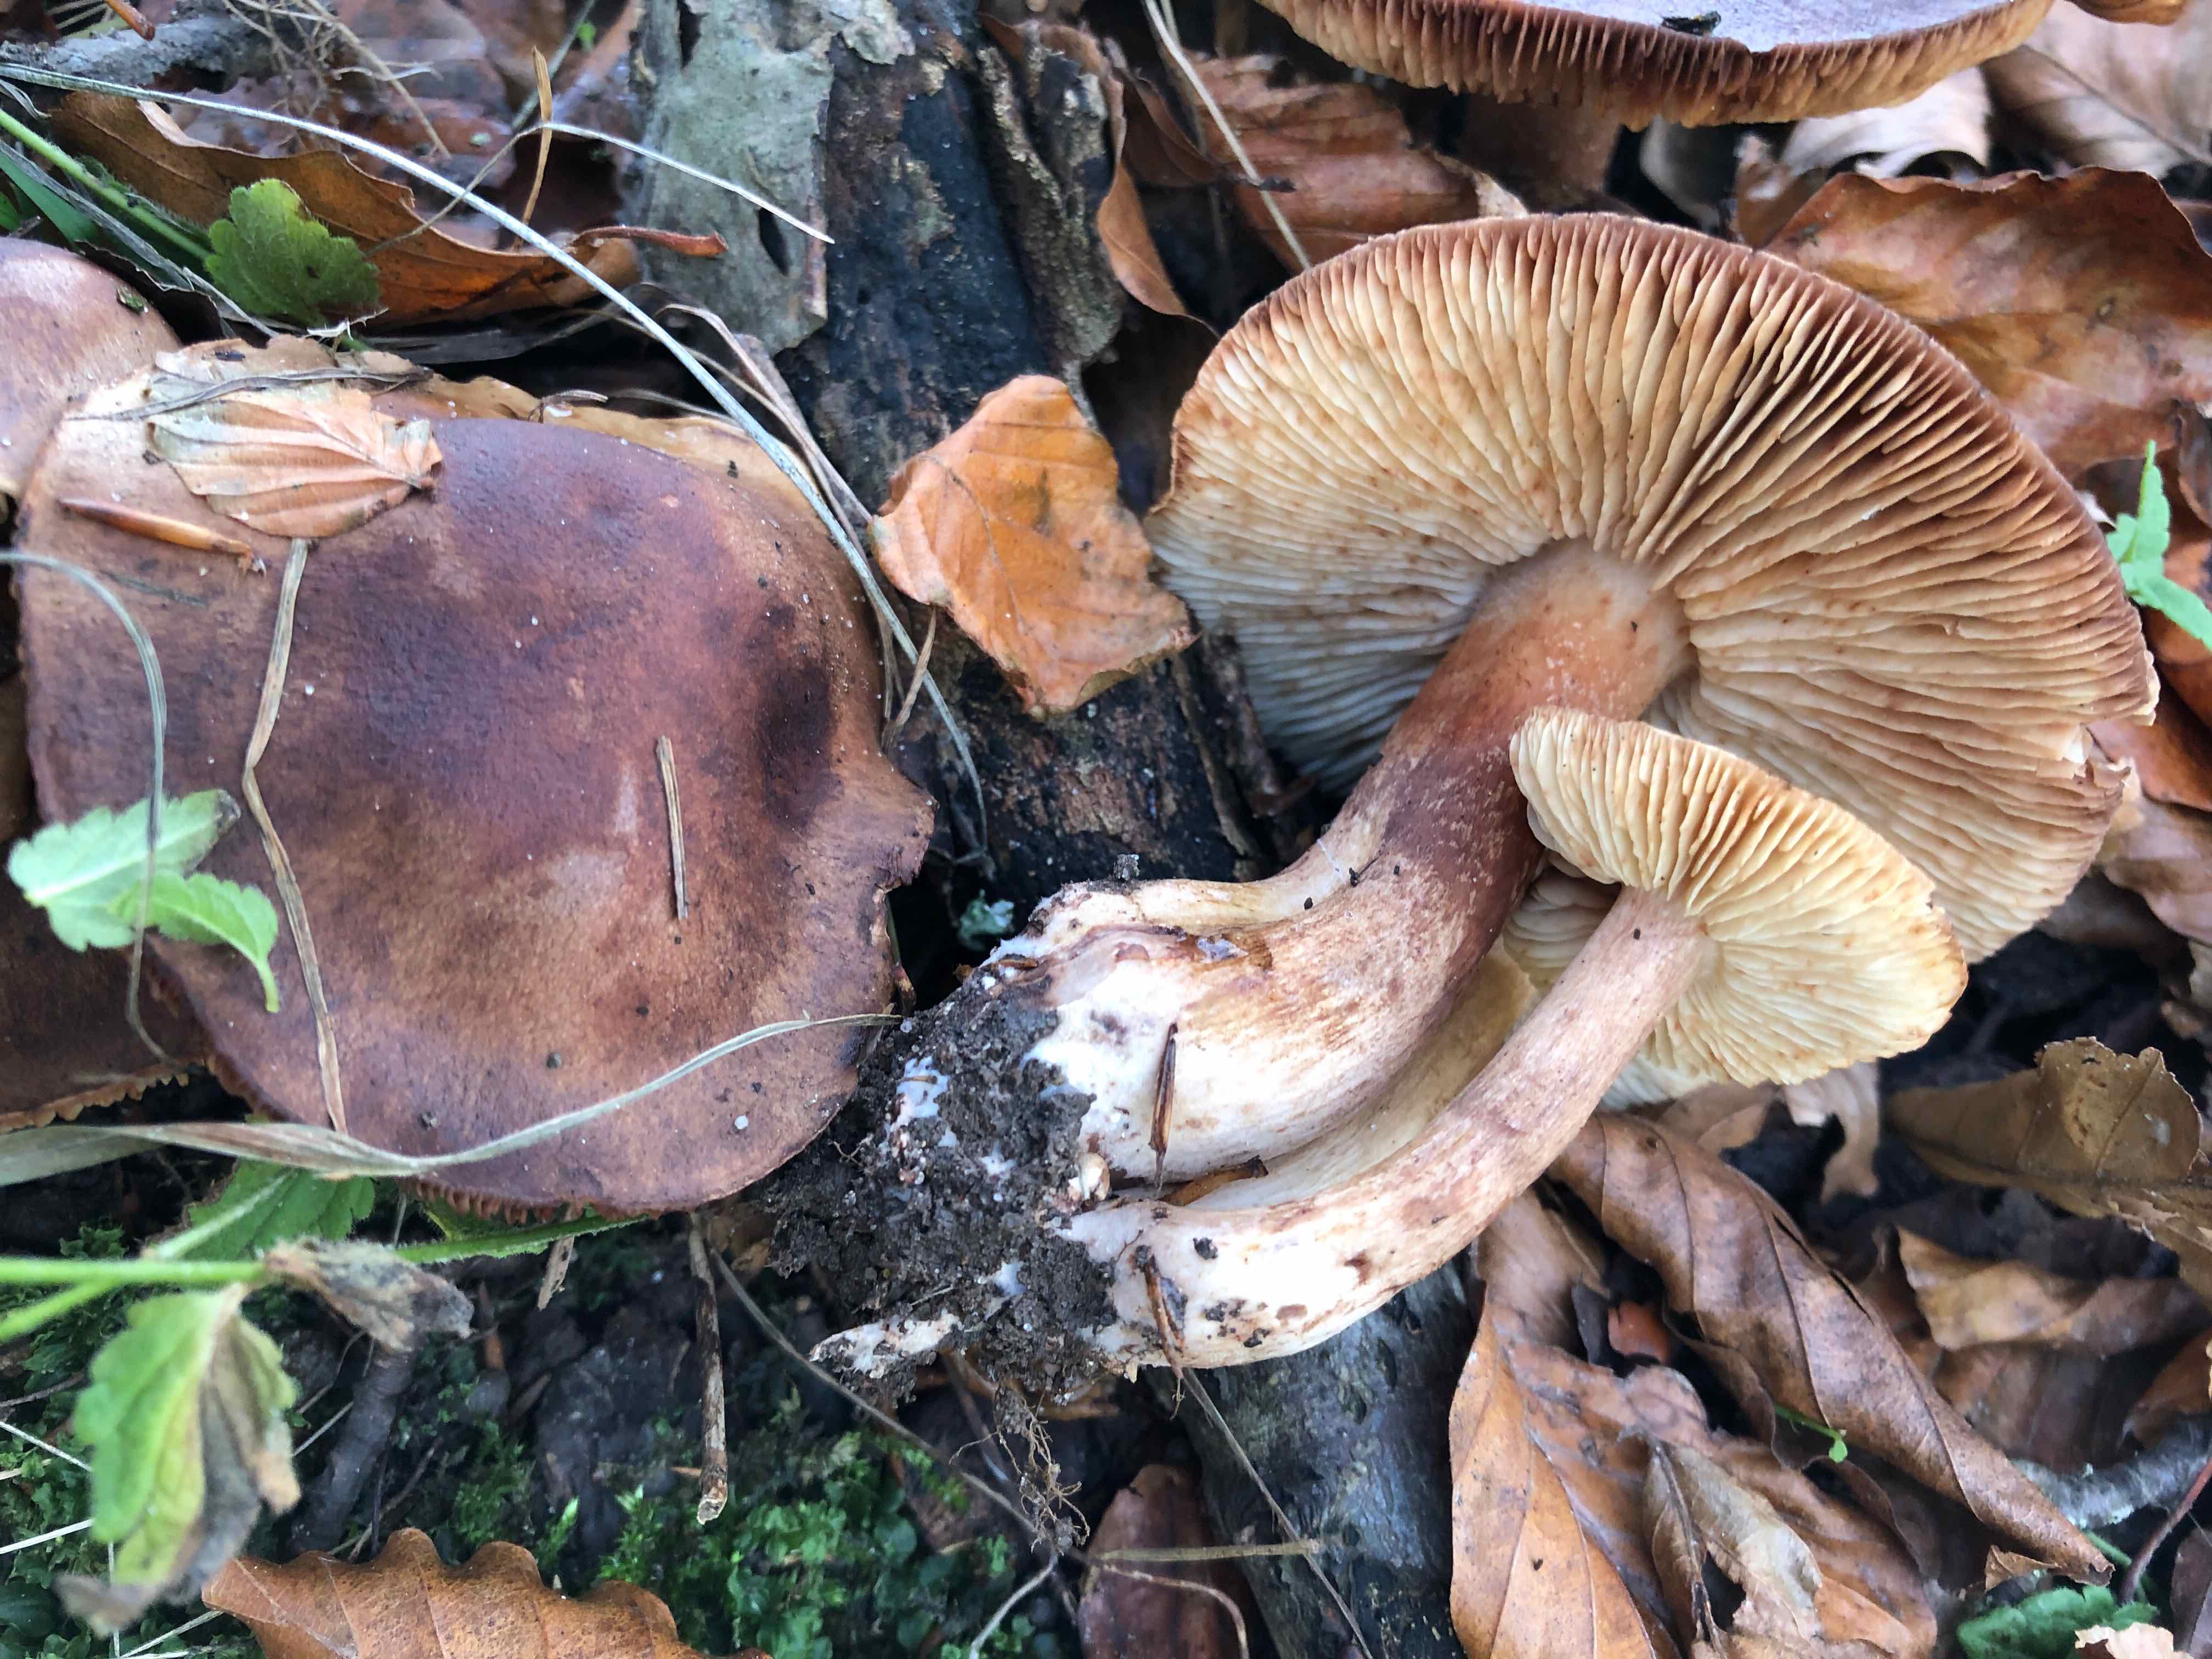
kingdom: Fungi
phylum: Basidiomycota
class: Agaricomycetes
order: Agaricales
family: Tricholomataceae
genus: Tricholoma
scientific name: Tricholoma ustale
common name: sveden ridderhat
